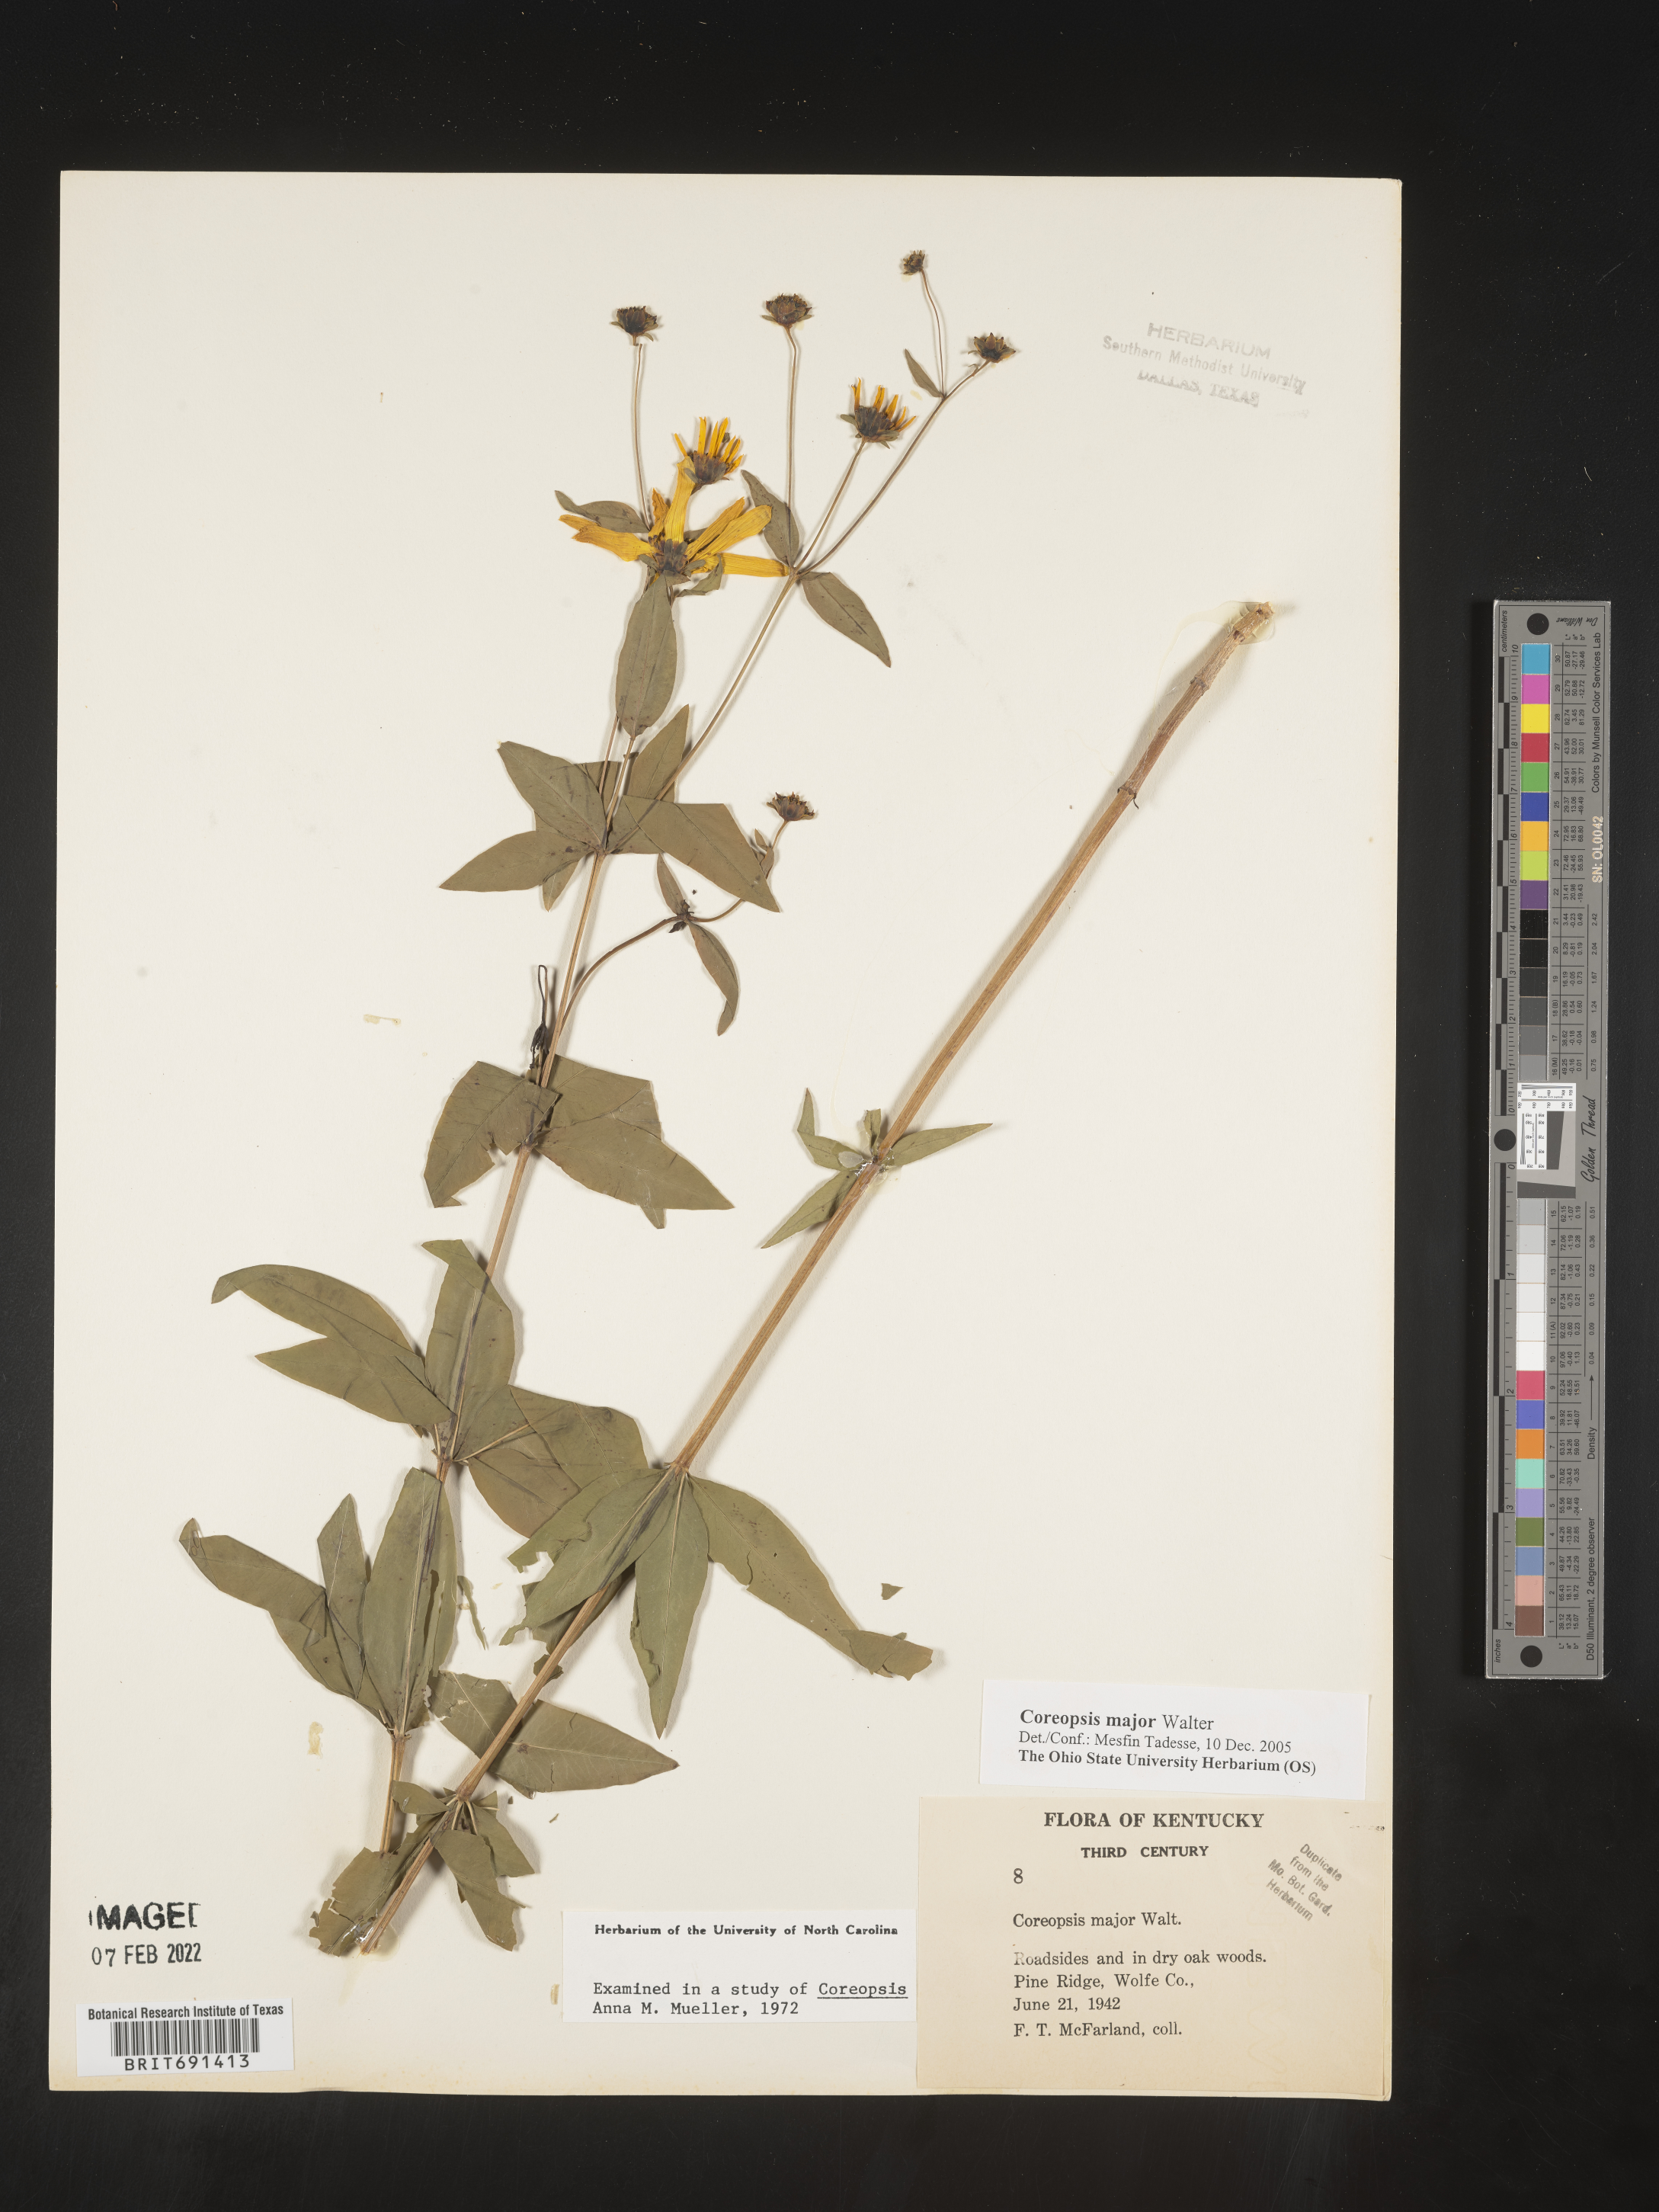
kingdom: Plantae
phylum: Tracheophyta
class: Magnoliopsida
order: Asterales
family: Asteraceae
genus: Coreopsis
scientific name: Coreopsis major
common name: Forest tickseed
